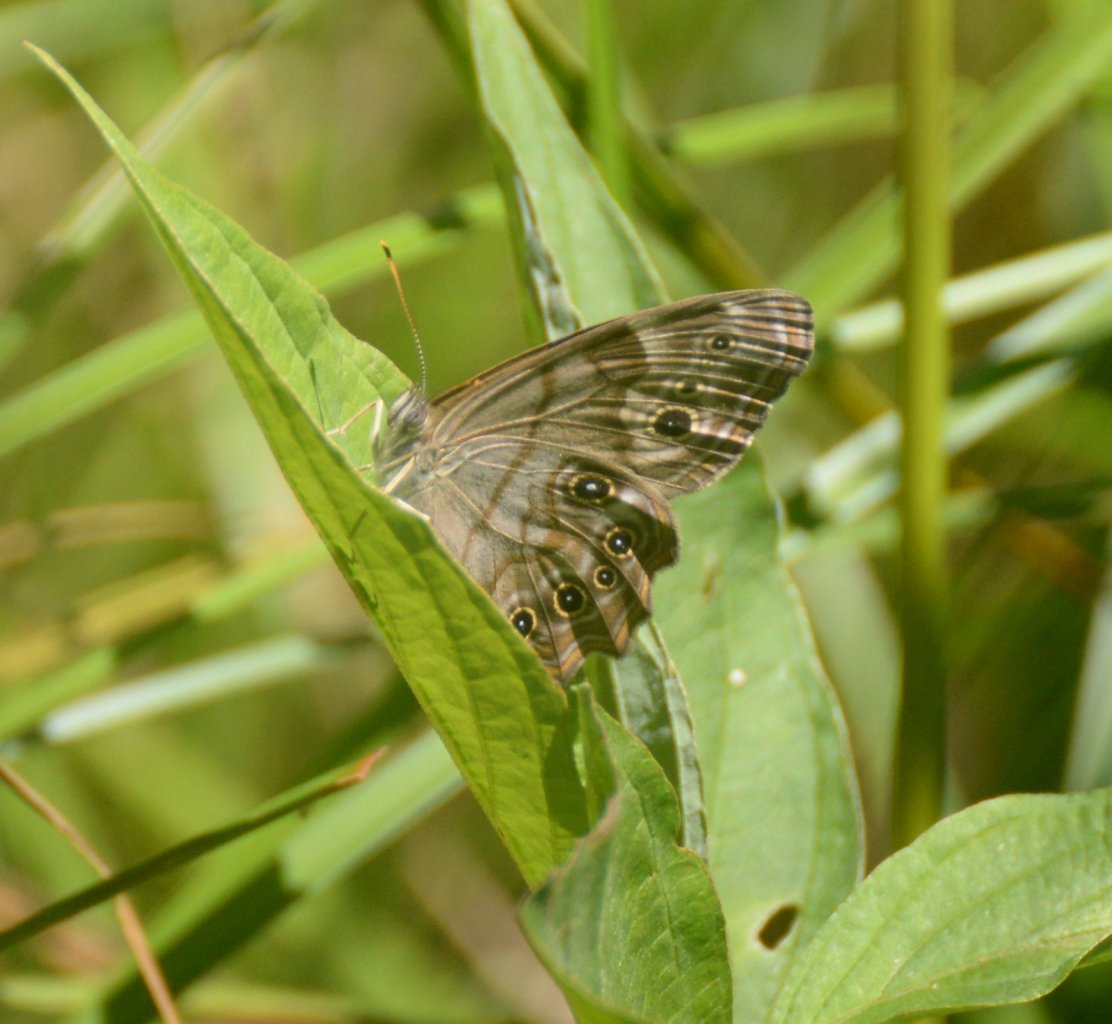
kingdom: Animalia
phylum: Arthropoda
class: Insecta
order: Lepidoptera
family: Nymphalidae
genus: Lethe
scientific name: Lethe anthedon
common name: Northern Pearly-Eye
